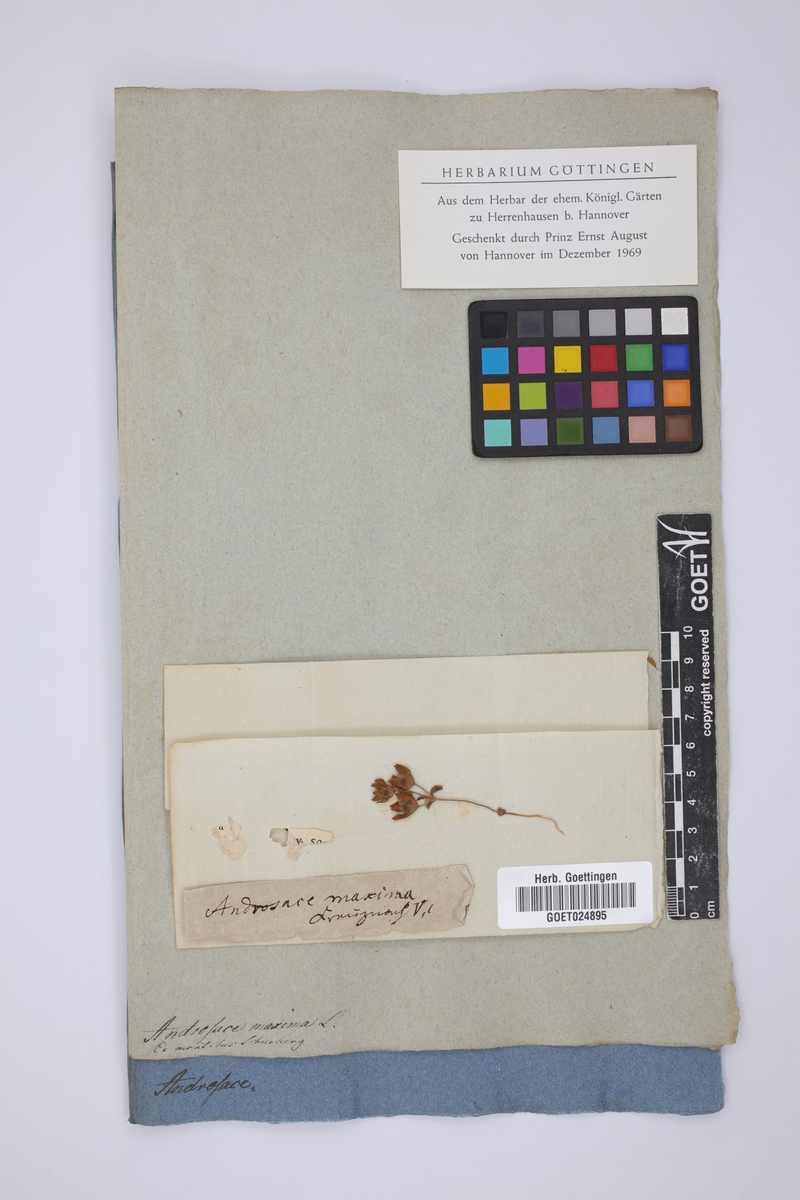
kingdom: Plantae
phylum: Tracheophyta
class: Magnoliopsida
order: Ericales
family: Primulaceae
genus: Androsace
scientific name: Androsace maxima
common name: Annual androsace
